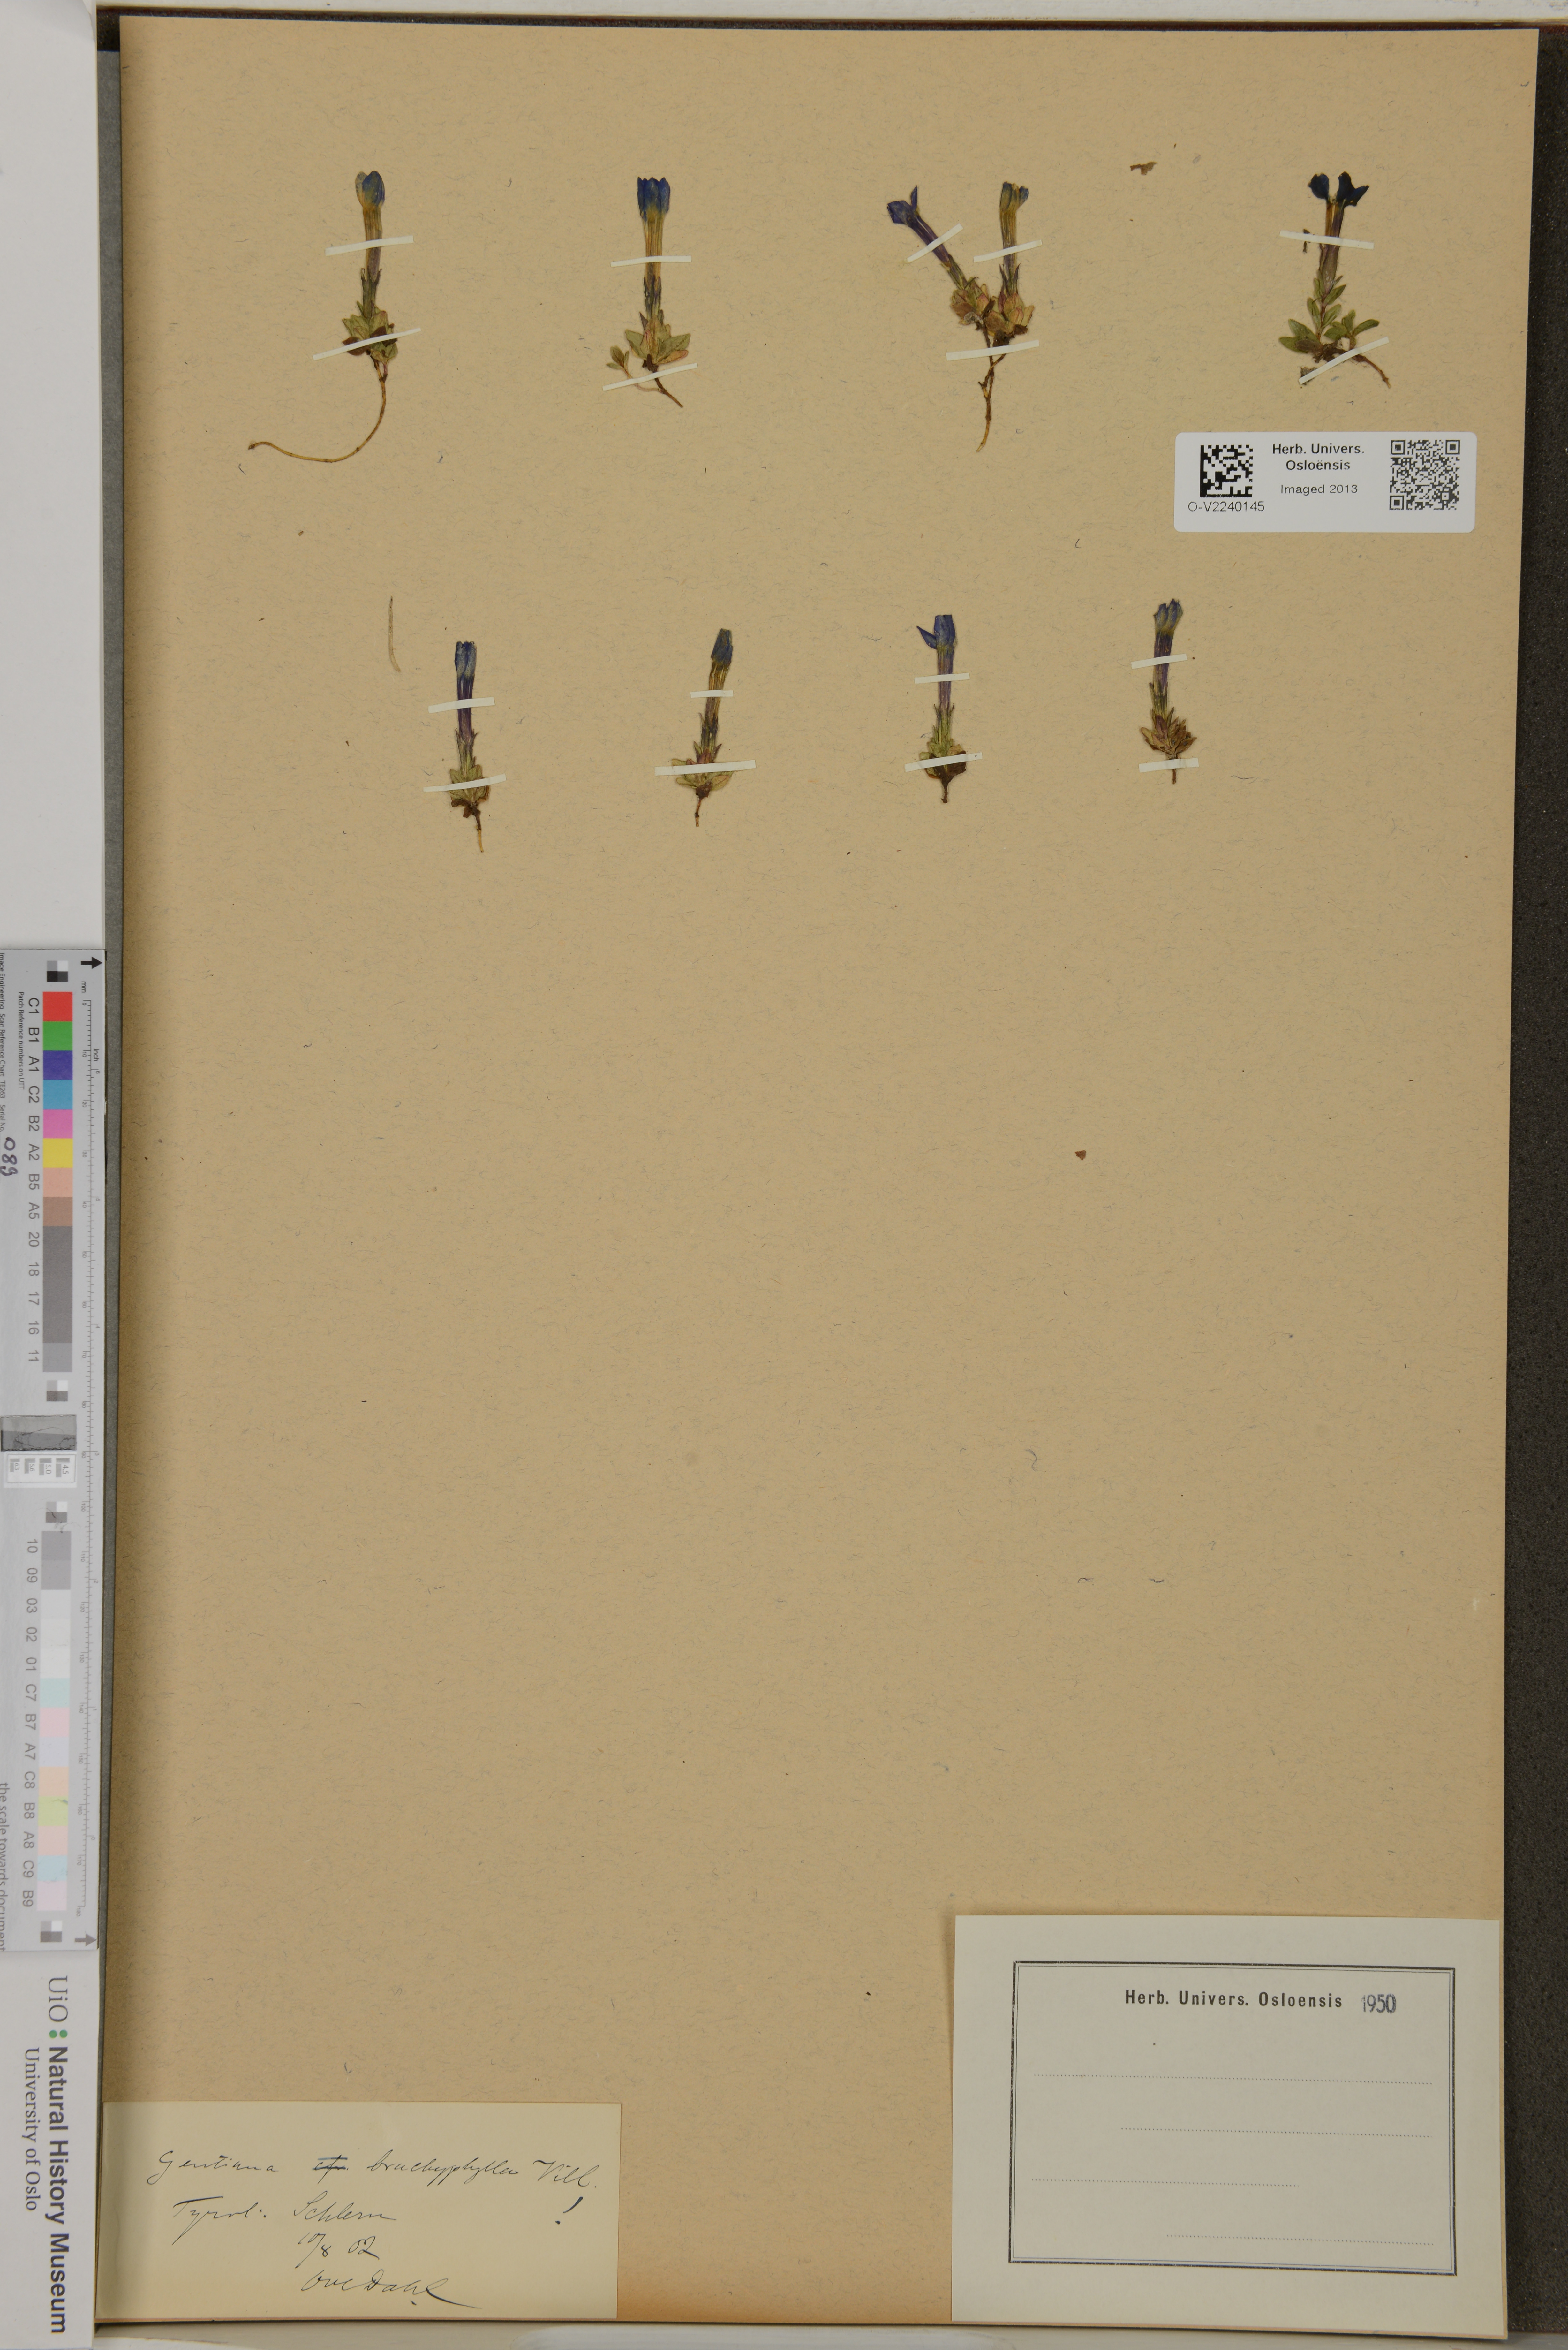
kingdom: Plantae
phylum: Tracheophyta
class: Magnoliopsida
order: Gentianales
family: Gentianaceae
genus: Gentiana
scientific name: Gentiana brachyphylla
